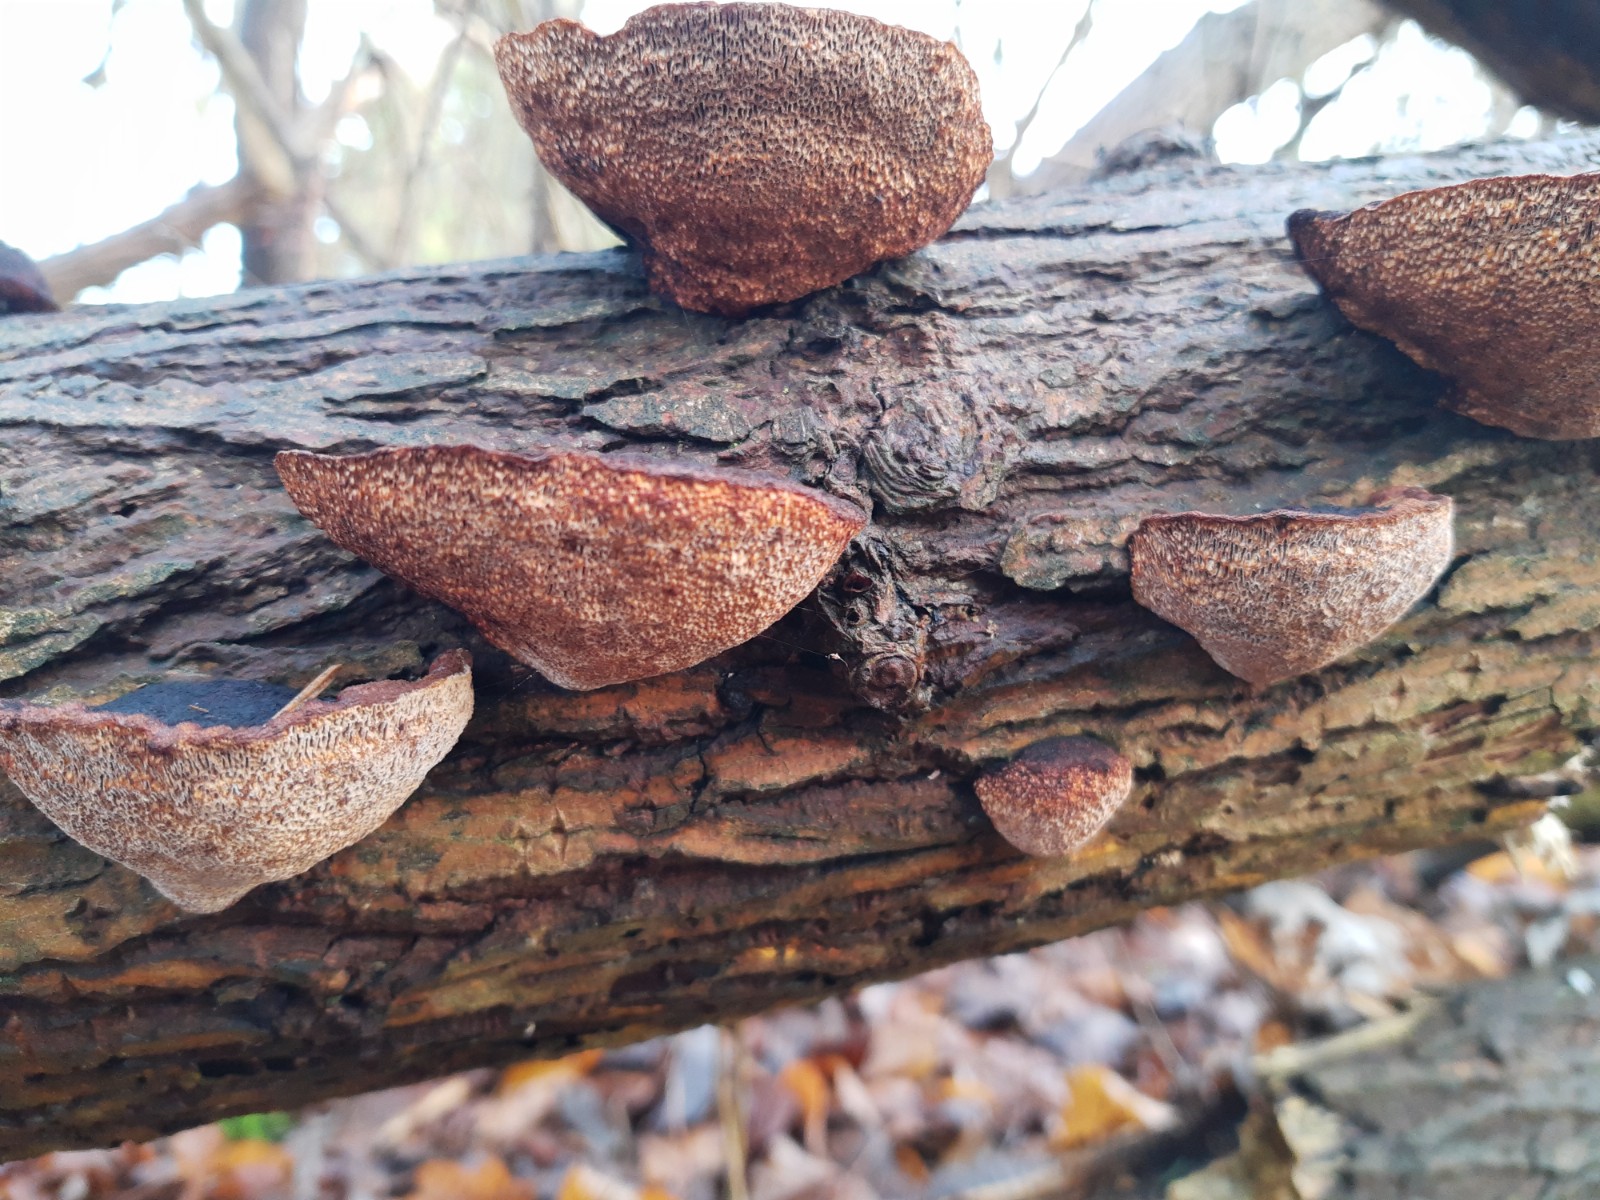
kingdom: Fungi
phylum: Basidiomycota
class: Agaricomycetes
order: Polyporales
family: Polyporaceae
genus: Daedaleopsis
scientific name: Daedaleopsis confragosa
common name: rødmende læderporesvamp
